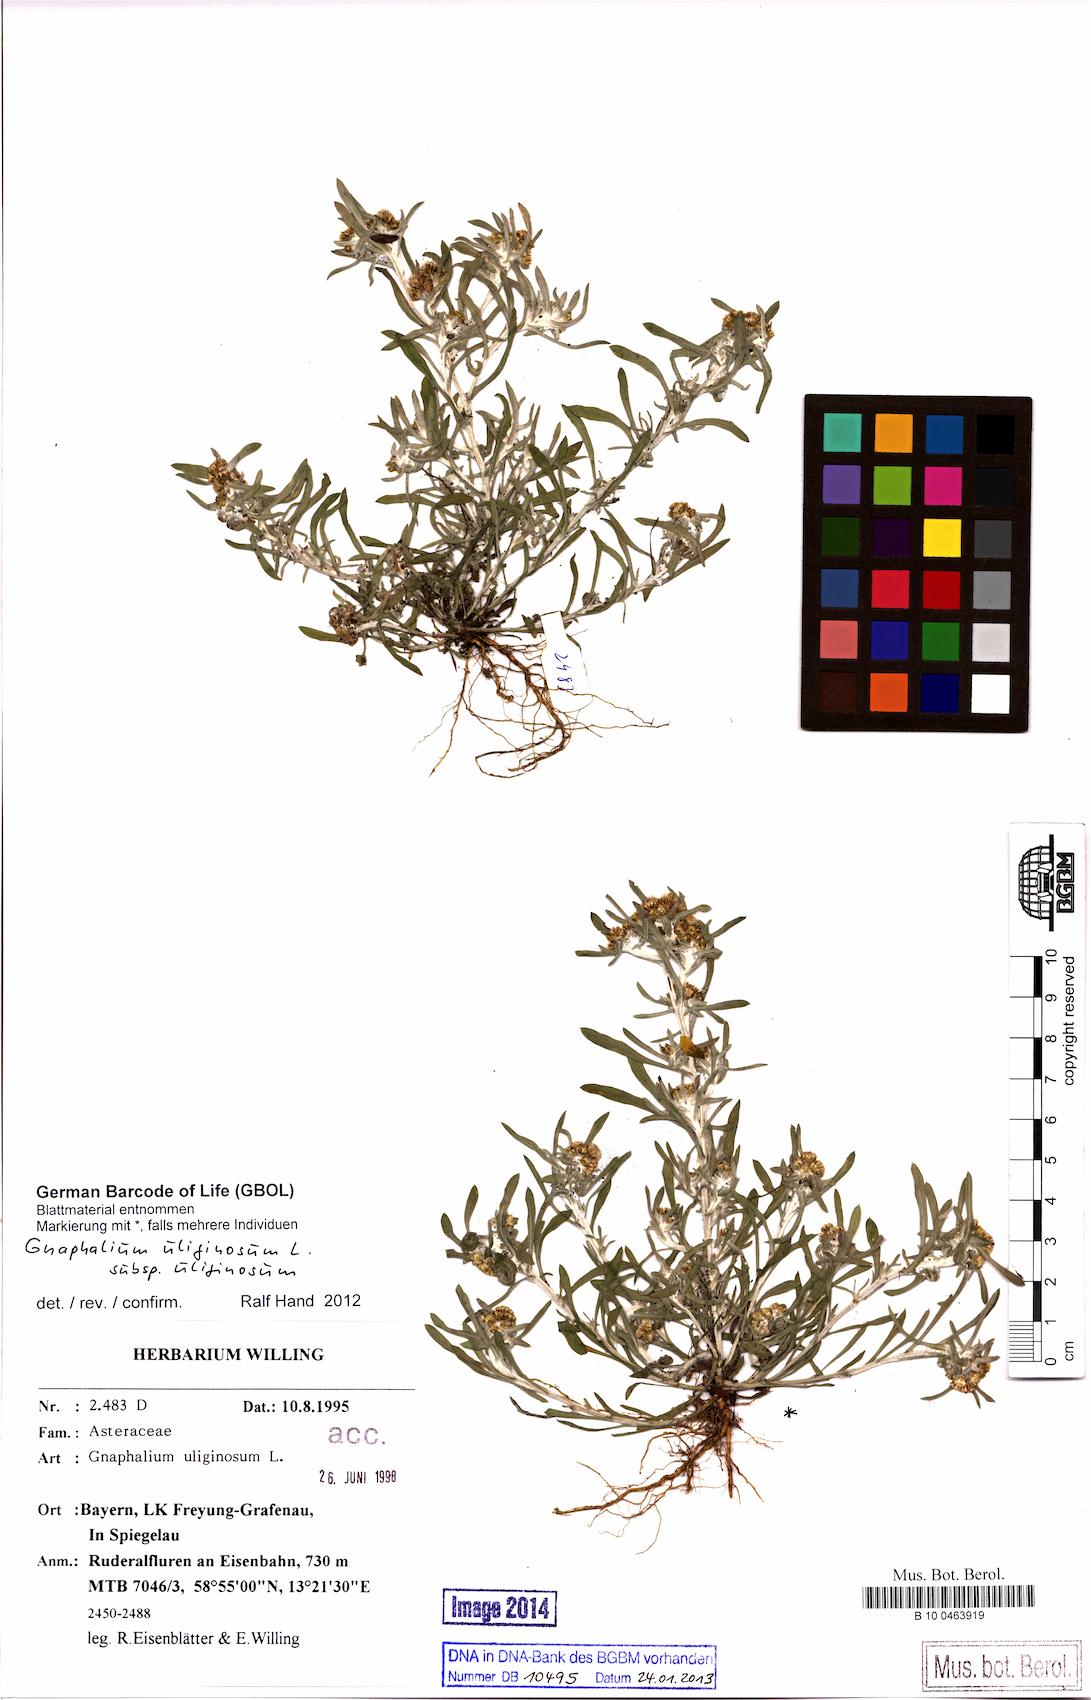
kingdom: Plantae
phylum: Tracheophyta
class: Magnoliopsida
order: Asterales
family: Asteraceae
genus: Gnaphalium
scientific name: Gnaphalium uliginosum
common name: Marsh cudweed
